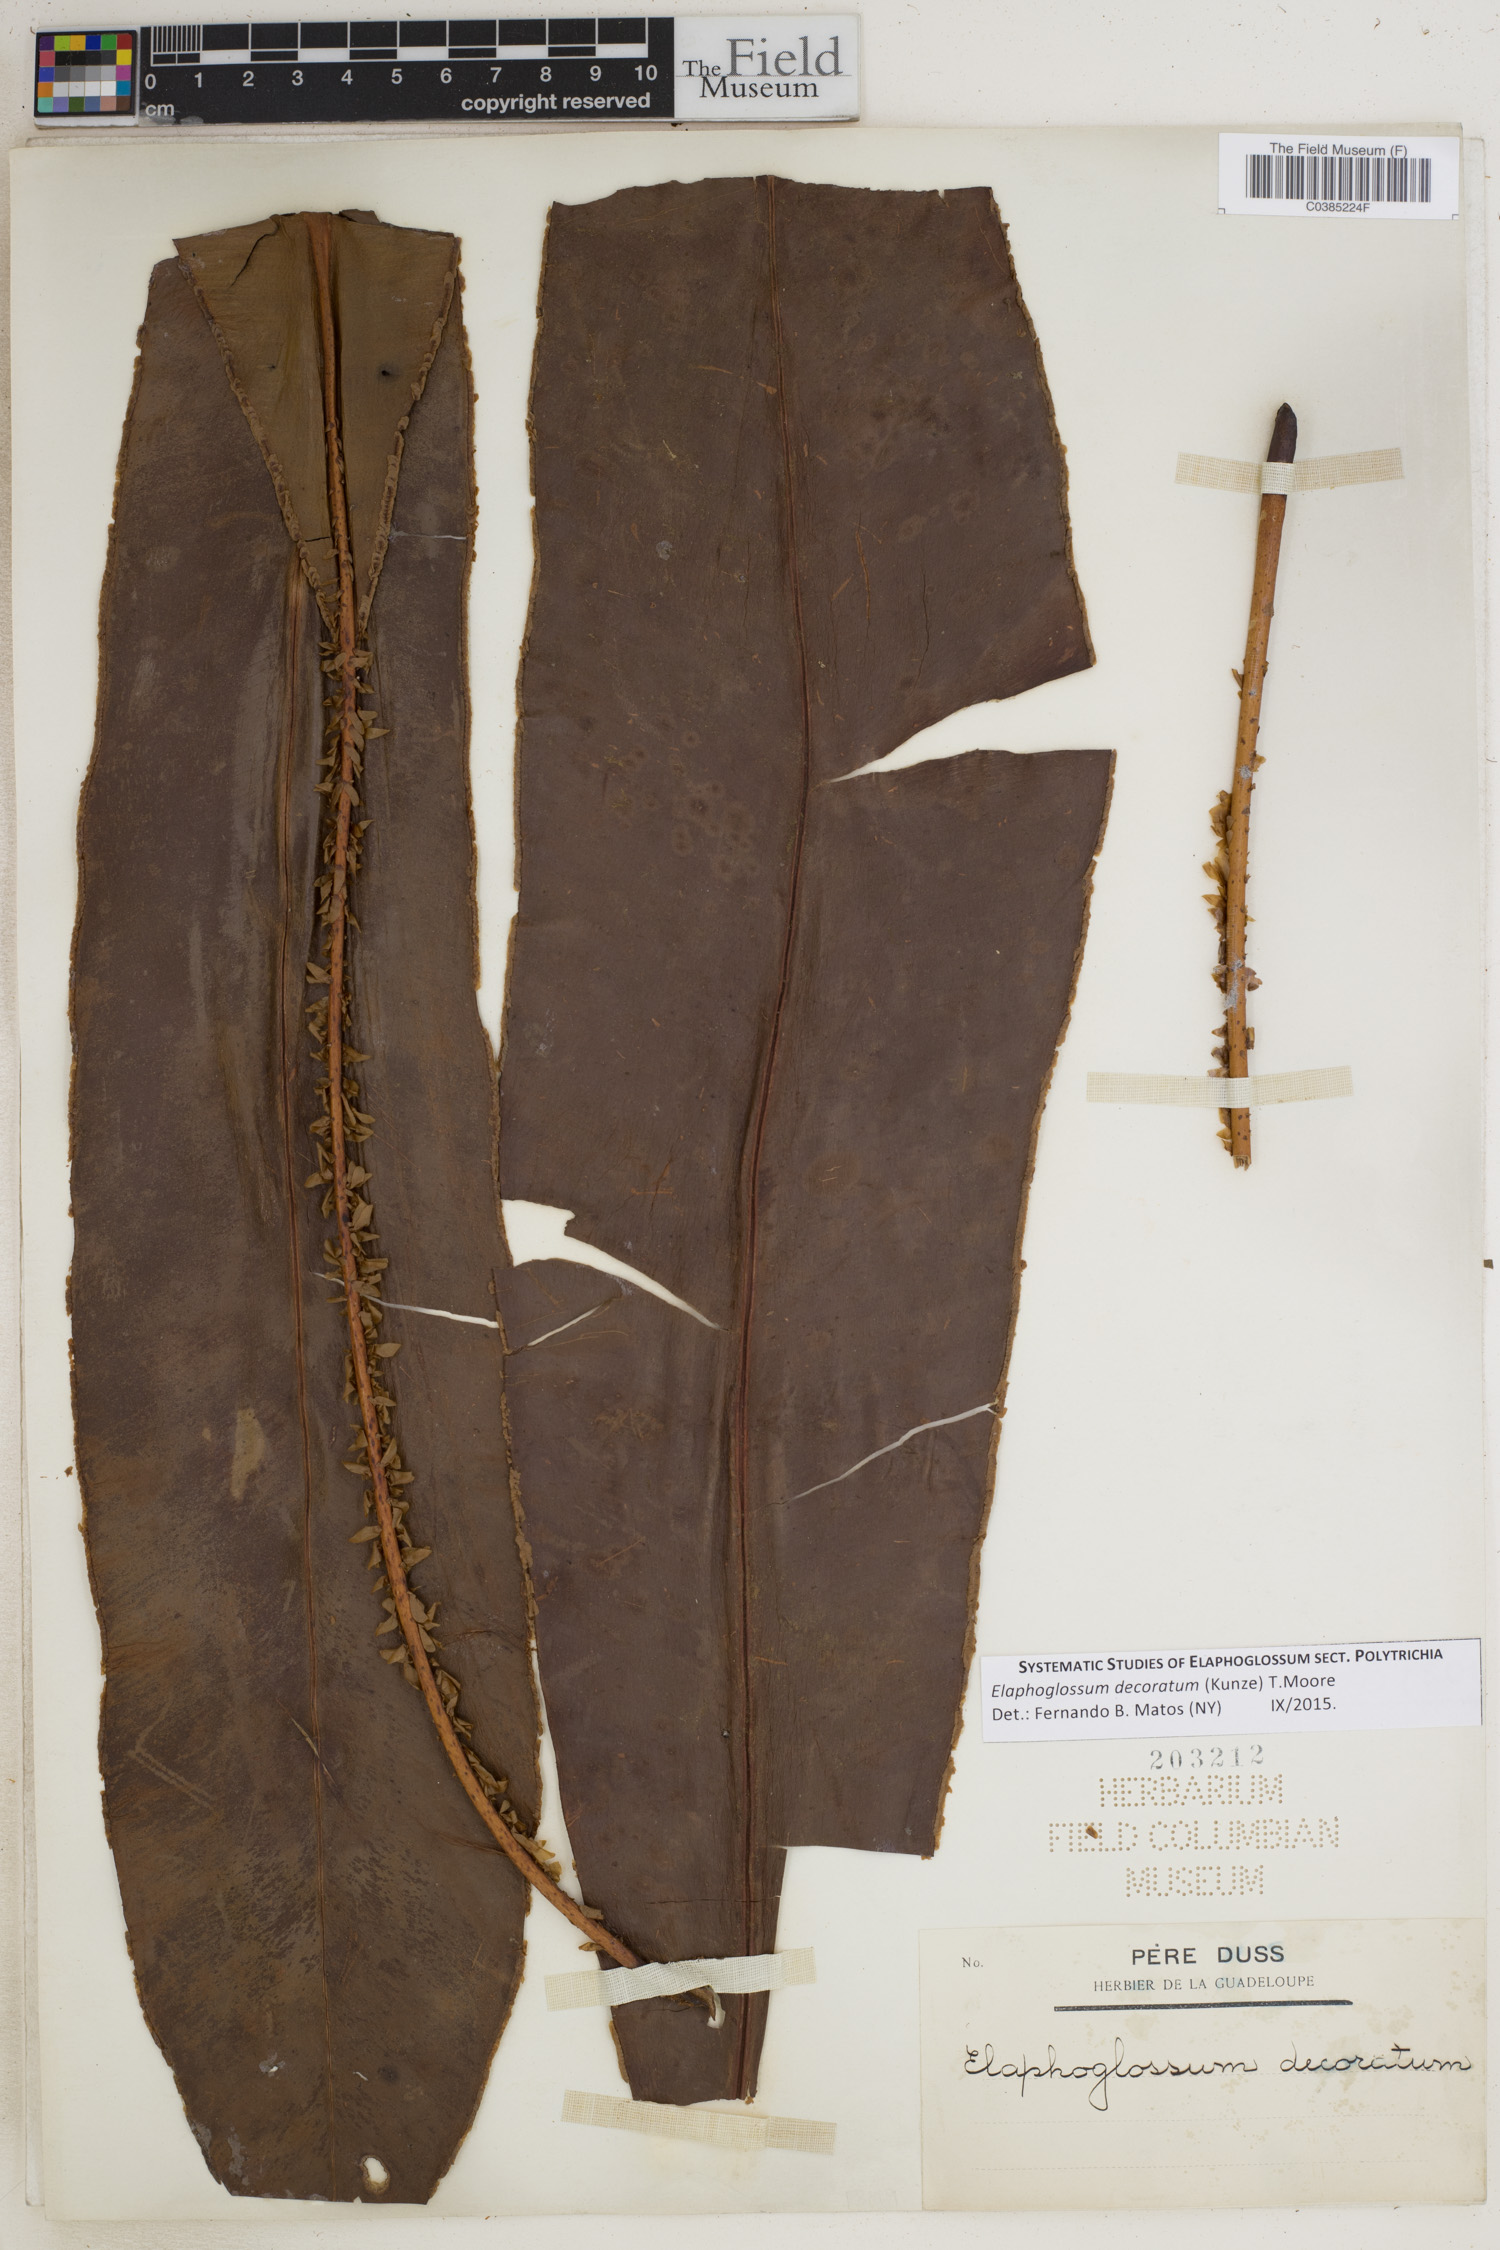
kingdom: Plantae
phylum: Tracheophyta
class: Polypodiopsida
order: Polypodiales
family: Dryopteridaceae
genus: Elaphoglossum
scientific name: Elaphoglossum decoratum
